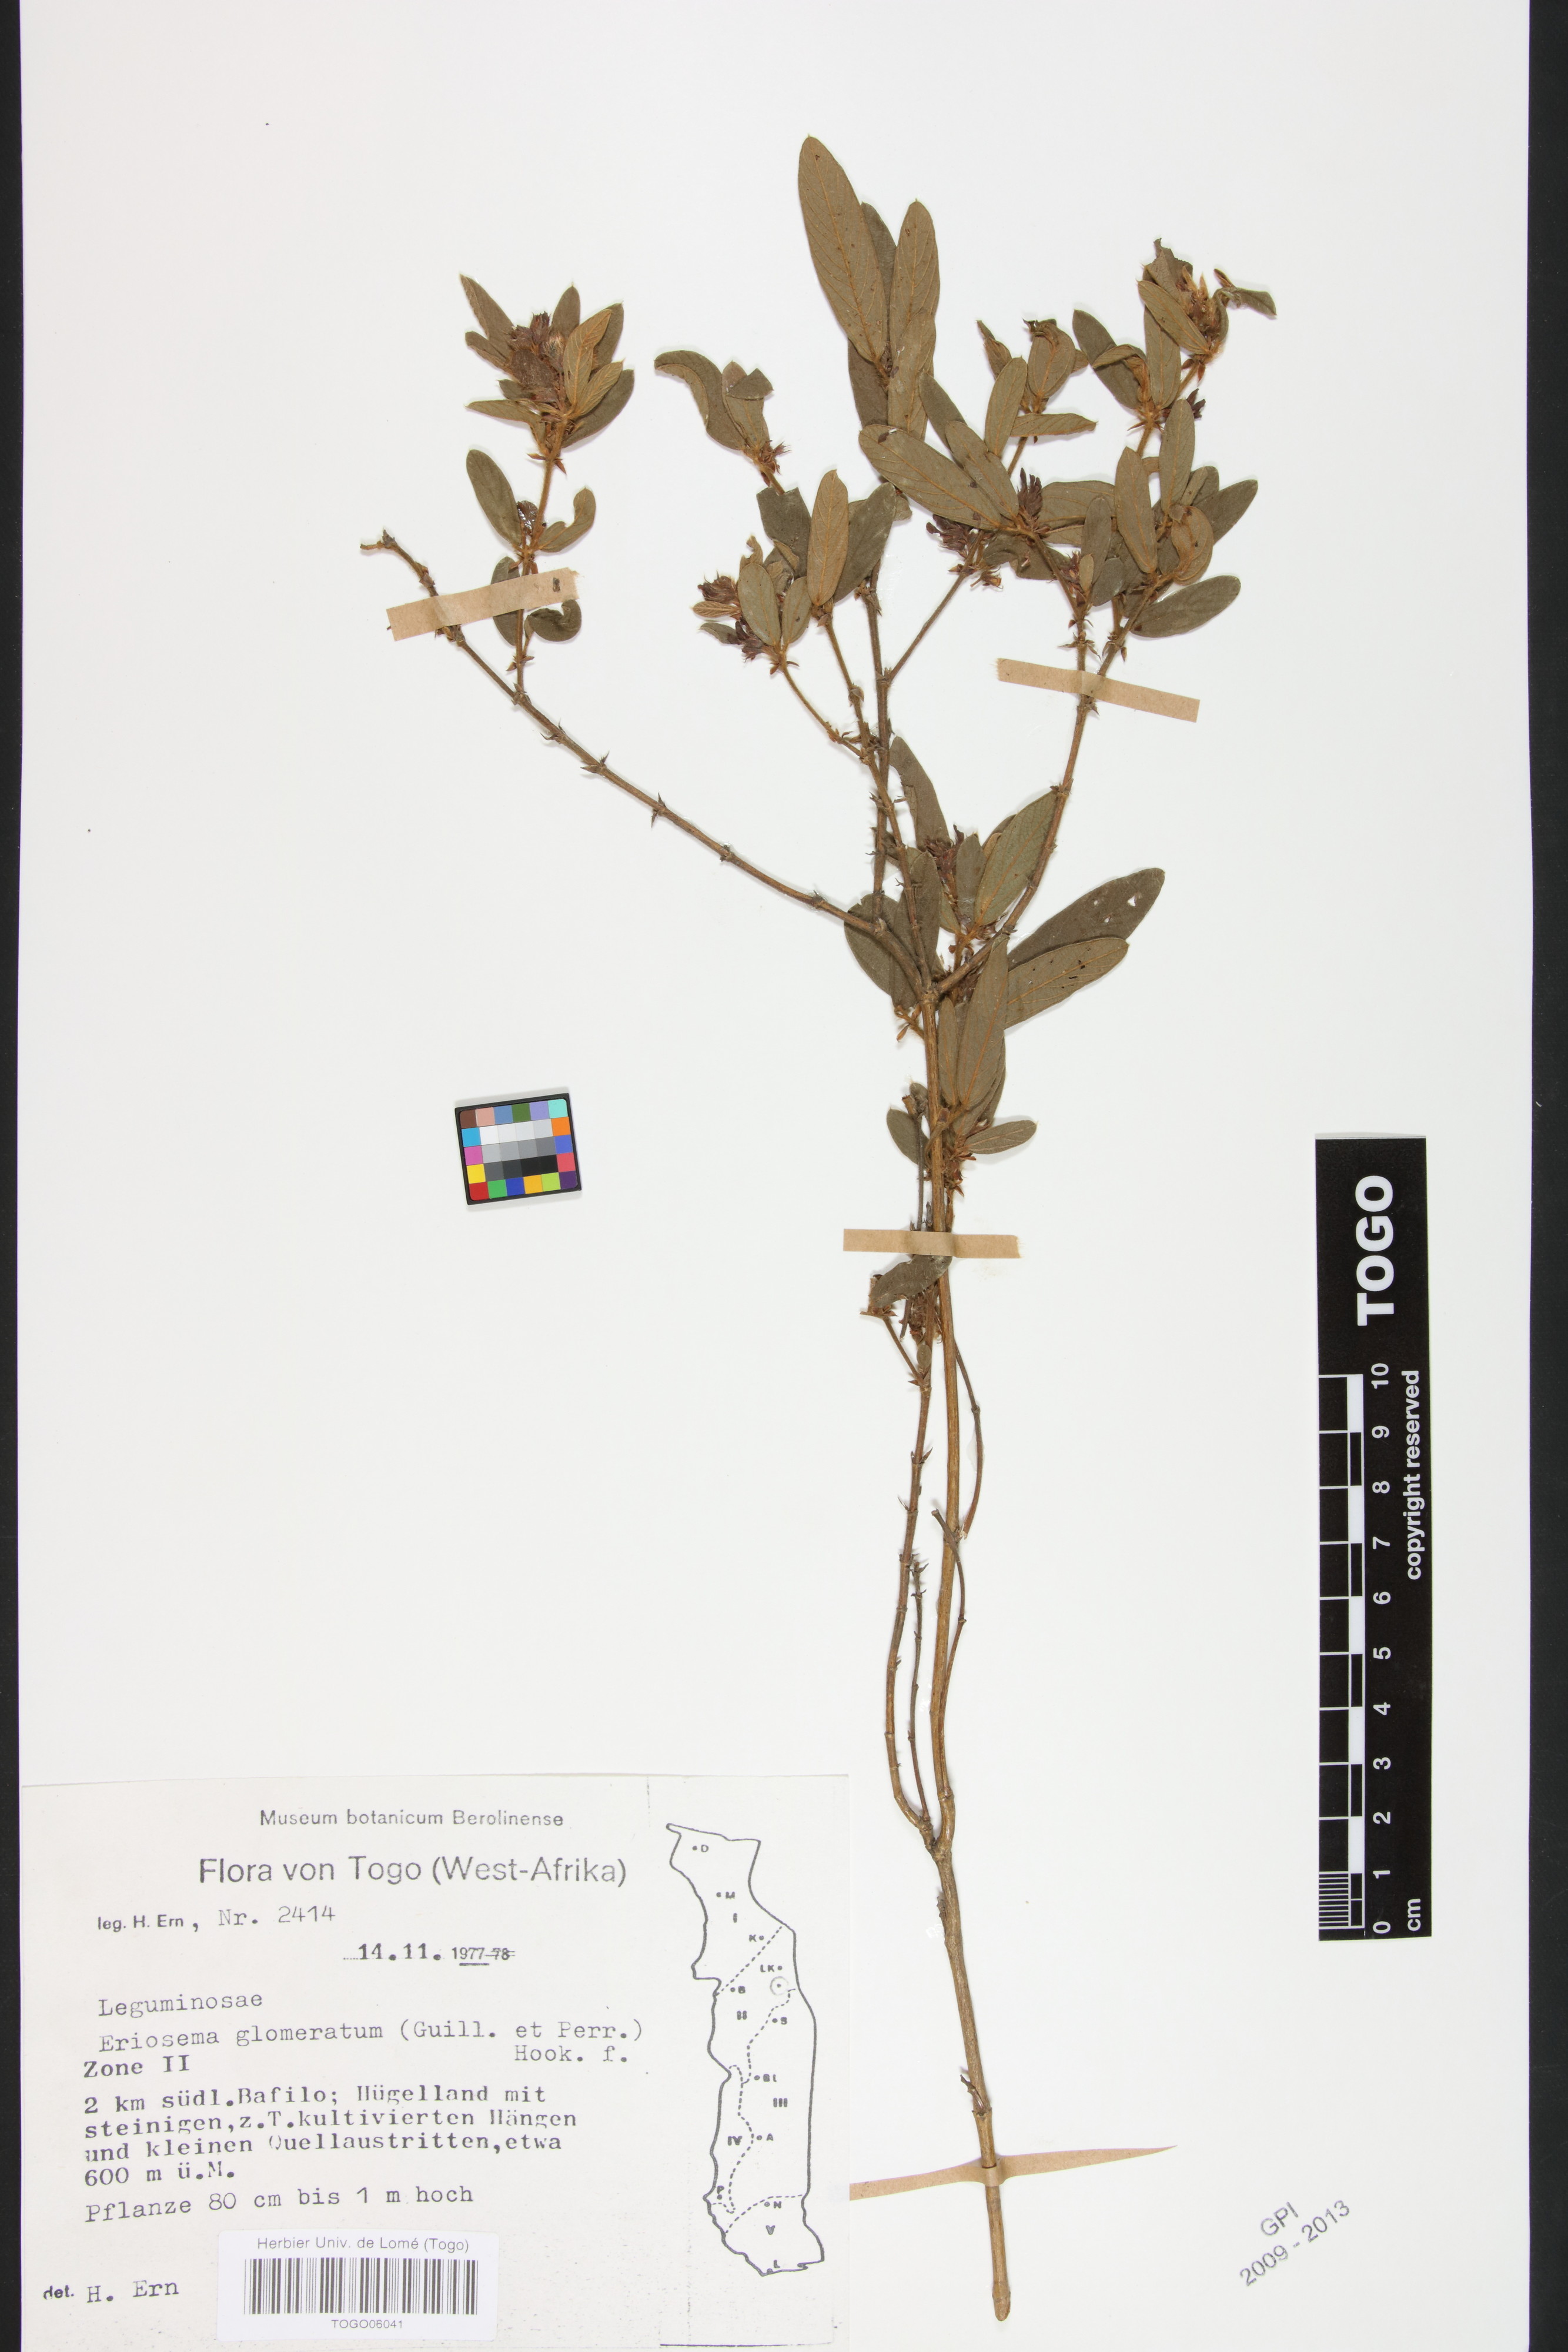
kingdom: Plantae
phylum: Tracheophyta
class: Magnoliopsida
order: Fabales
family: Fabaceae
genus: Eriosema
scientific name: Eriosema glomeratum
